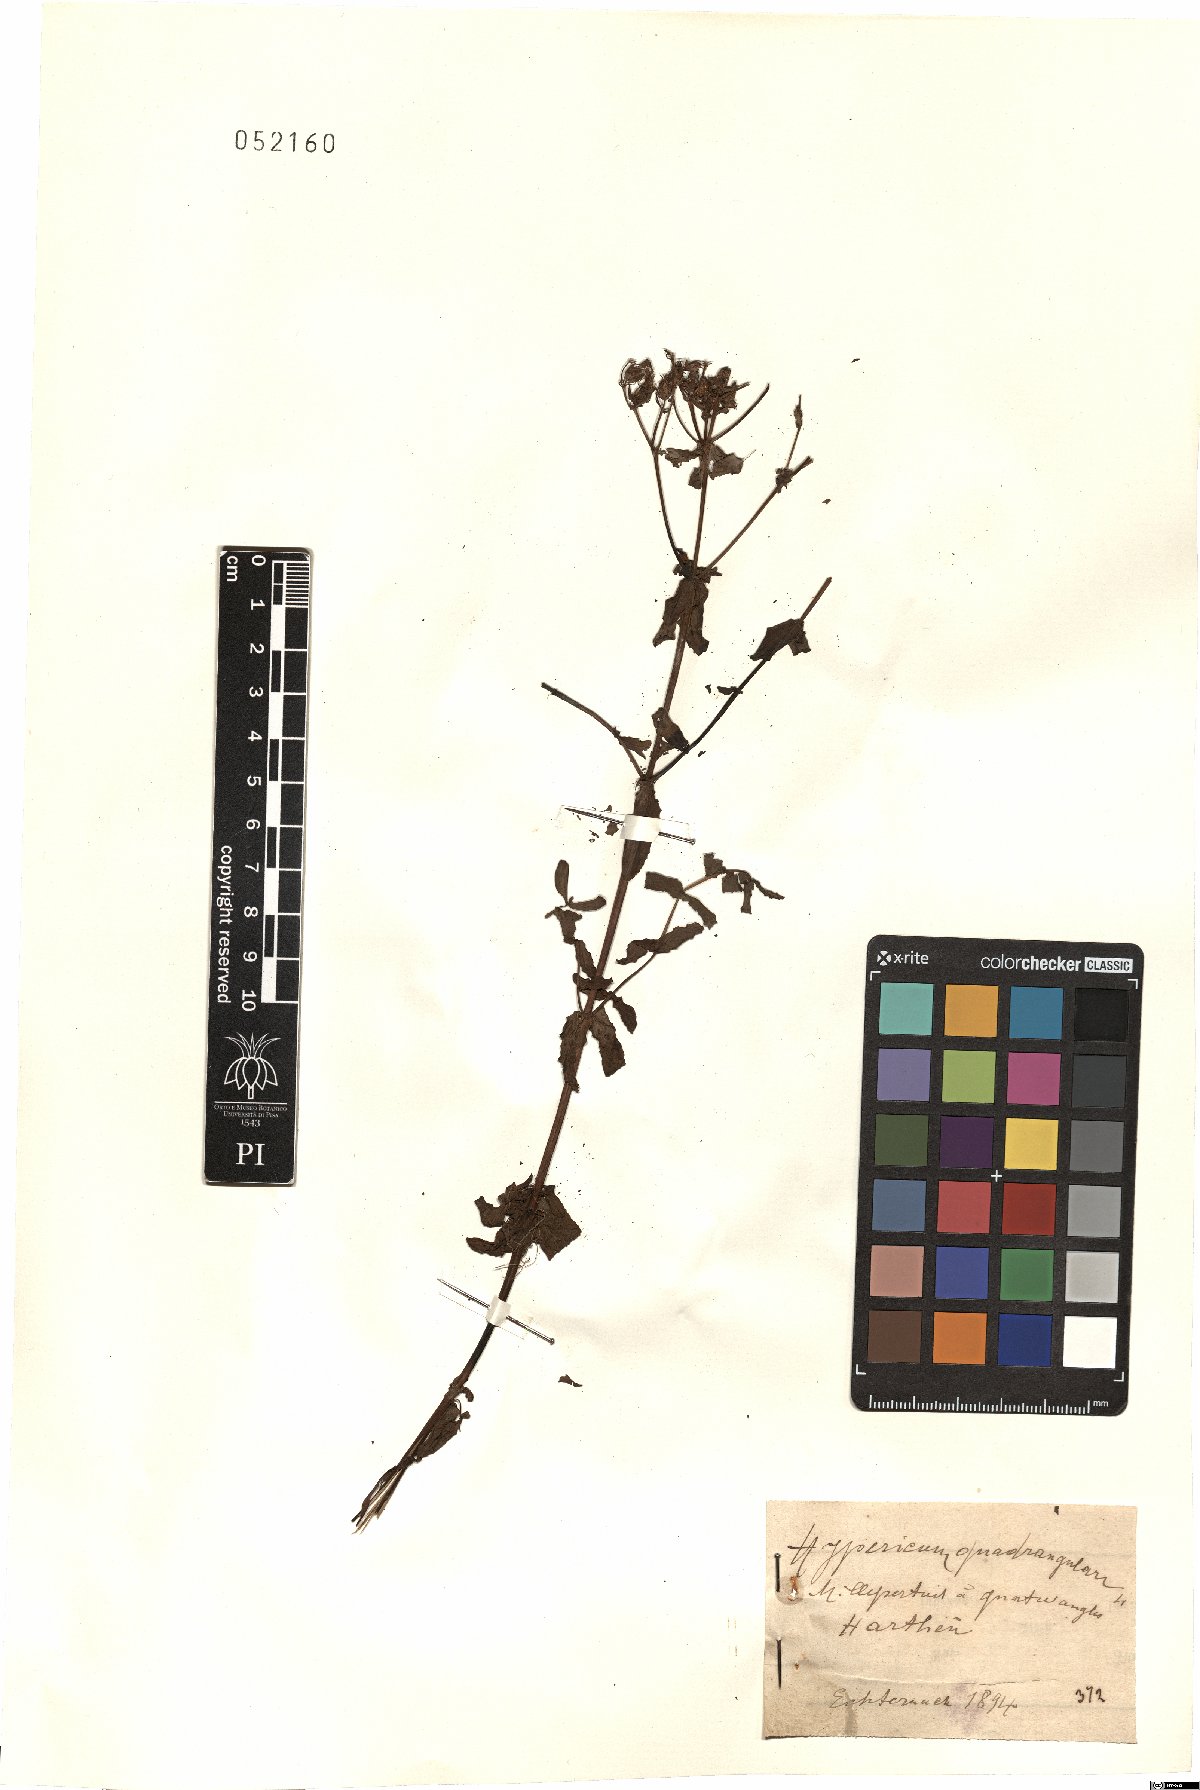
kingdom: Plantae
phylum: Tracheophyta
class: Magnoliopsida
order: Malpighiales
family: Hypericaceae
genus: Hypericum
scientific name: Hypericum tetrapterum
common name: Square-stalked st. john's-wort
